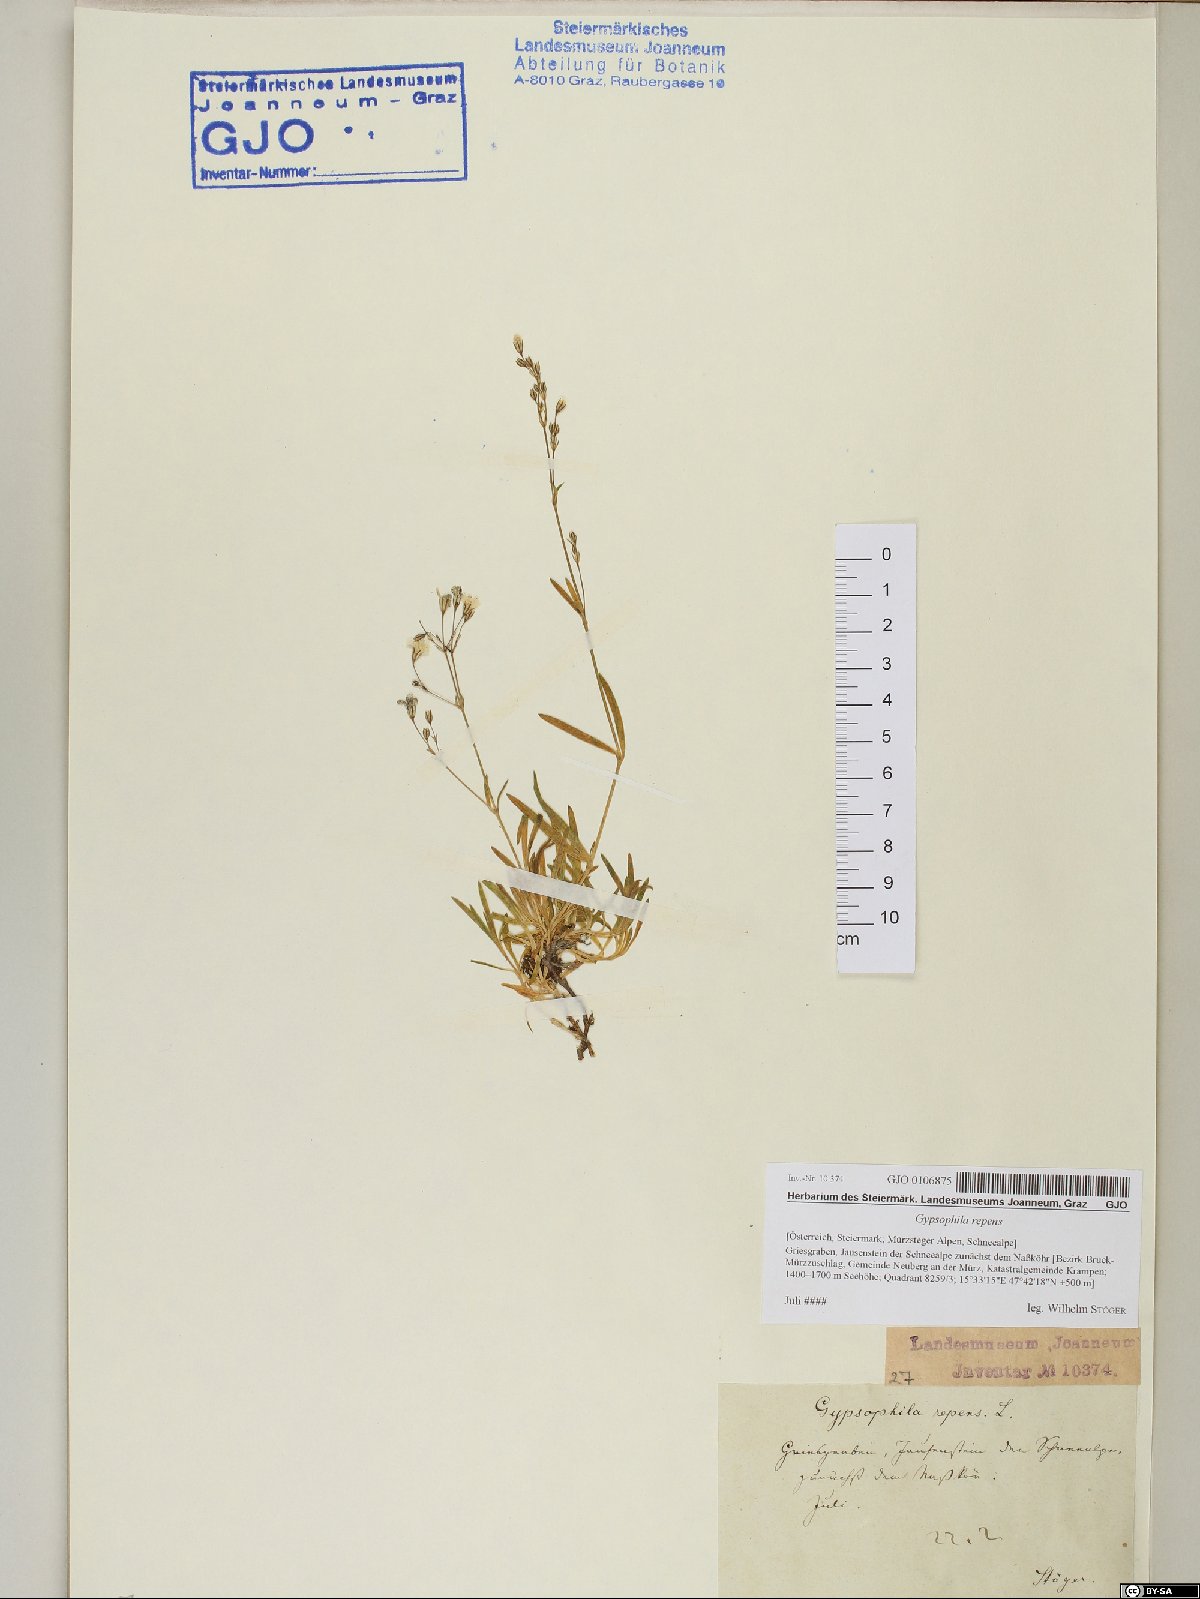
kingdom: Plantae
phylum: Tracheophyta
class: Magnoliopsida
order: Caryophyllales
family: Caryophyllaceae
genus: Gypsophila
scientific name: Gypsophila repens
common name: Creeping baby's-breath
